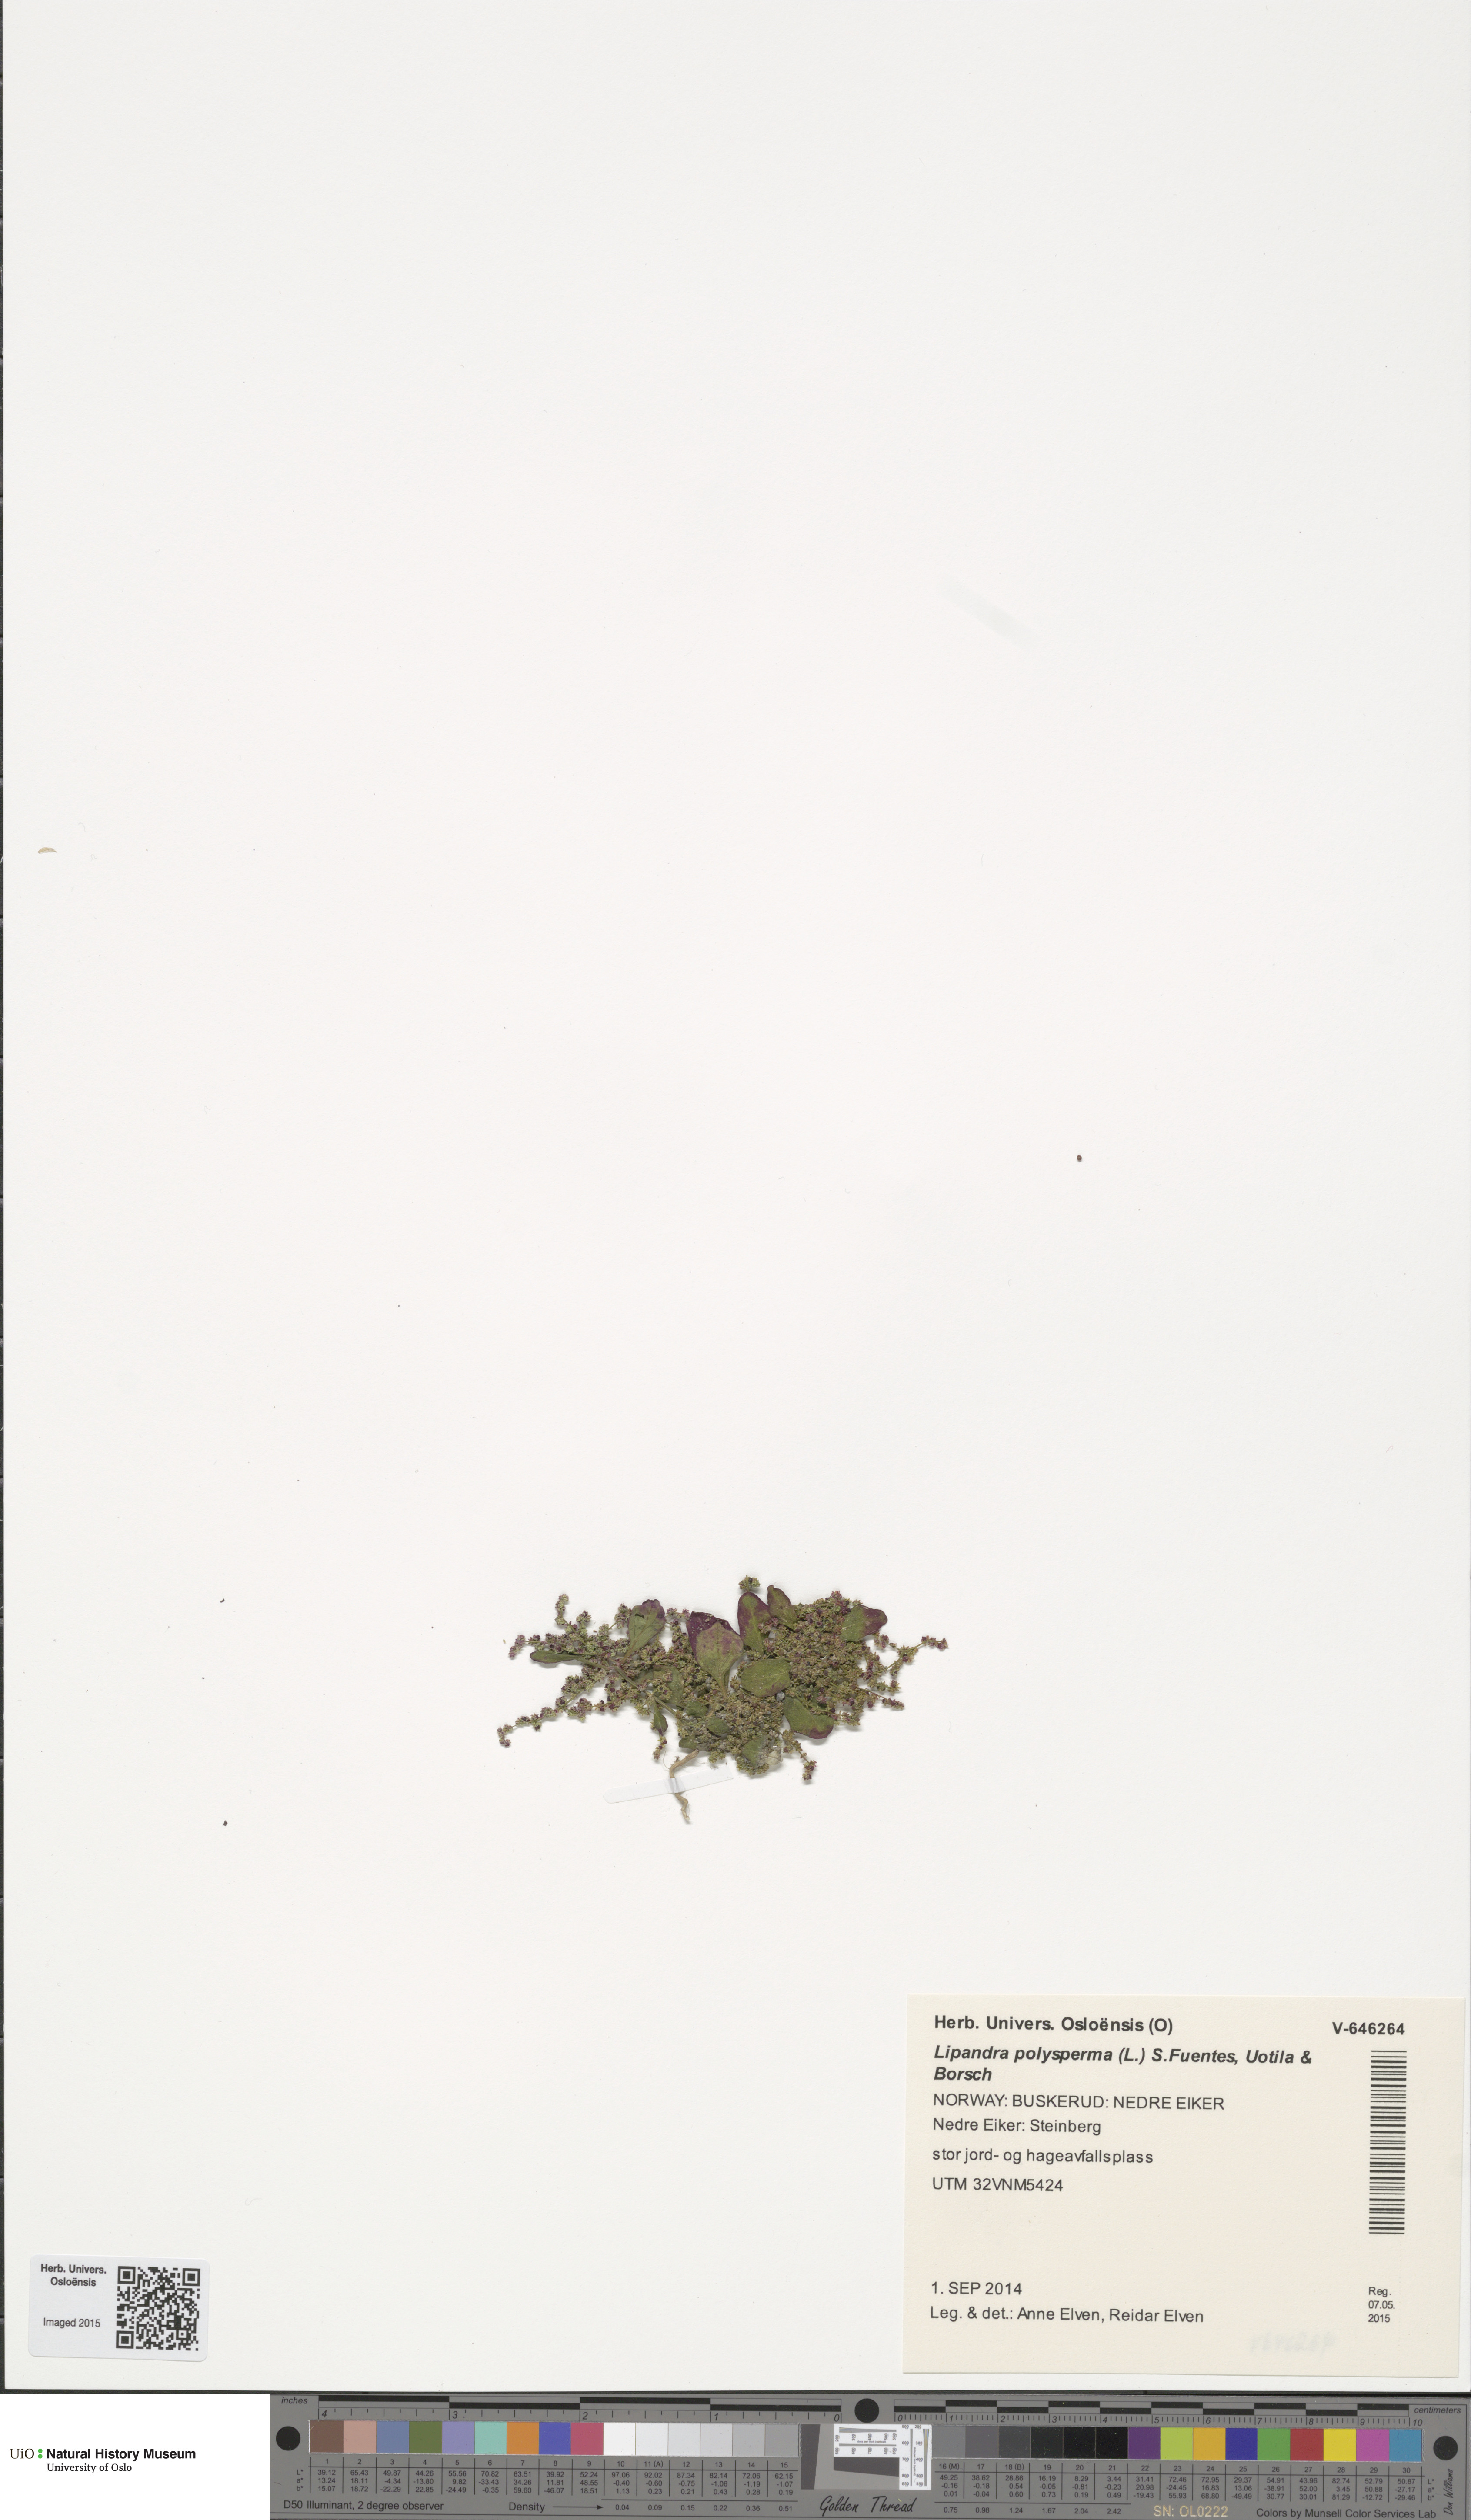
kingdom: Plantae
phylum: Tracheophyta
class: Magnoliopsida
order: Caryophyllales
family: Amaranthaceae
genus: Lipandra
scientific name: Lipandra polysperma
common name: Many-seed goosefoot
